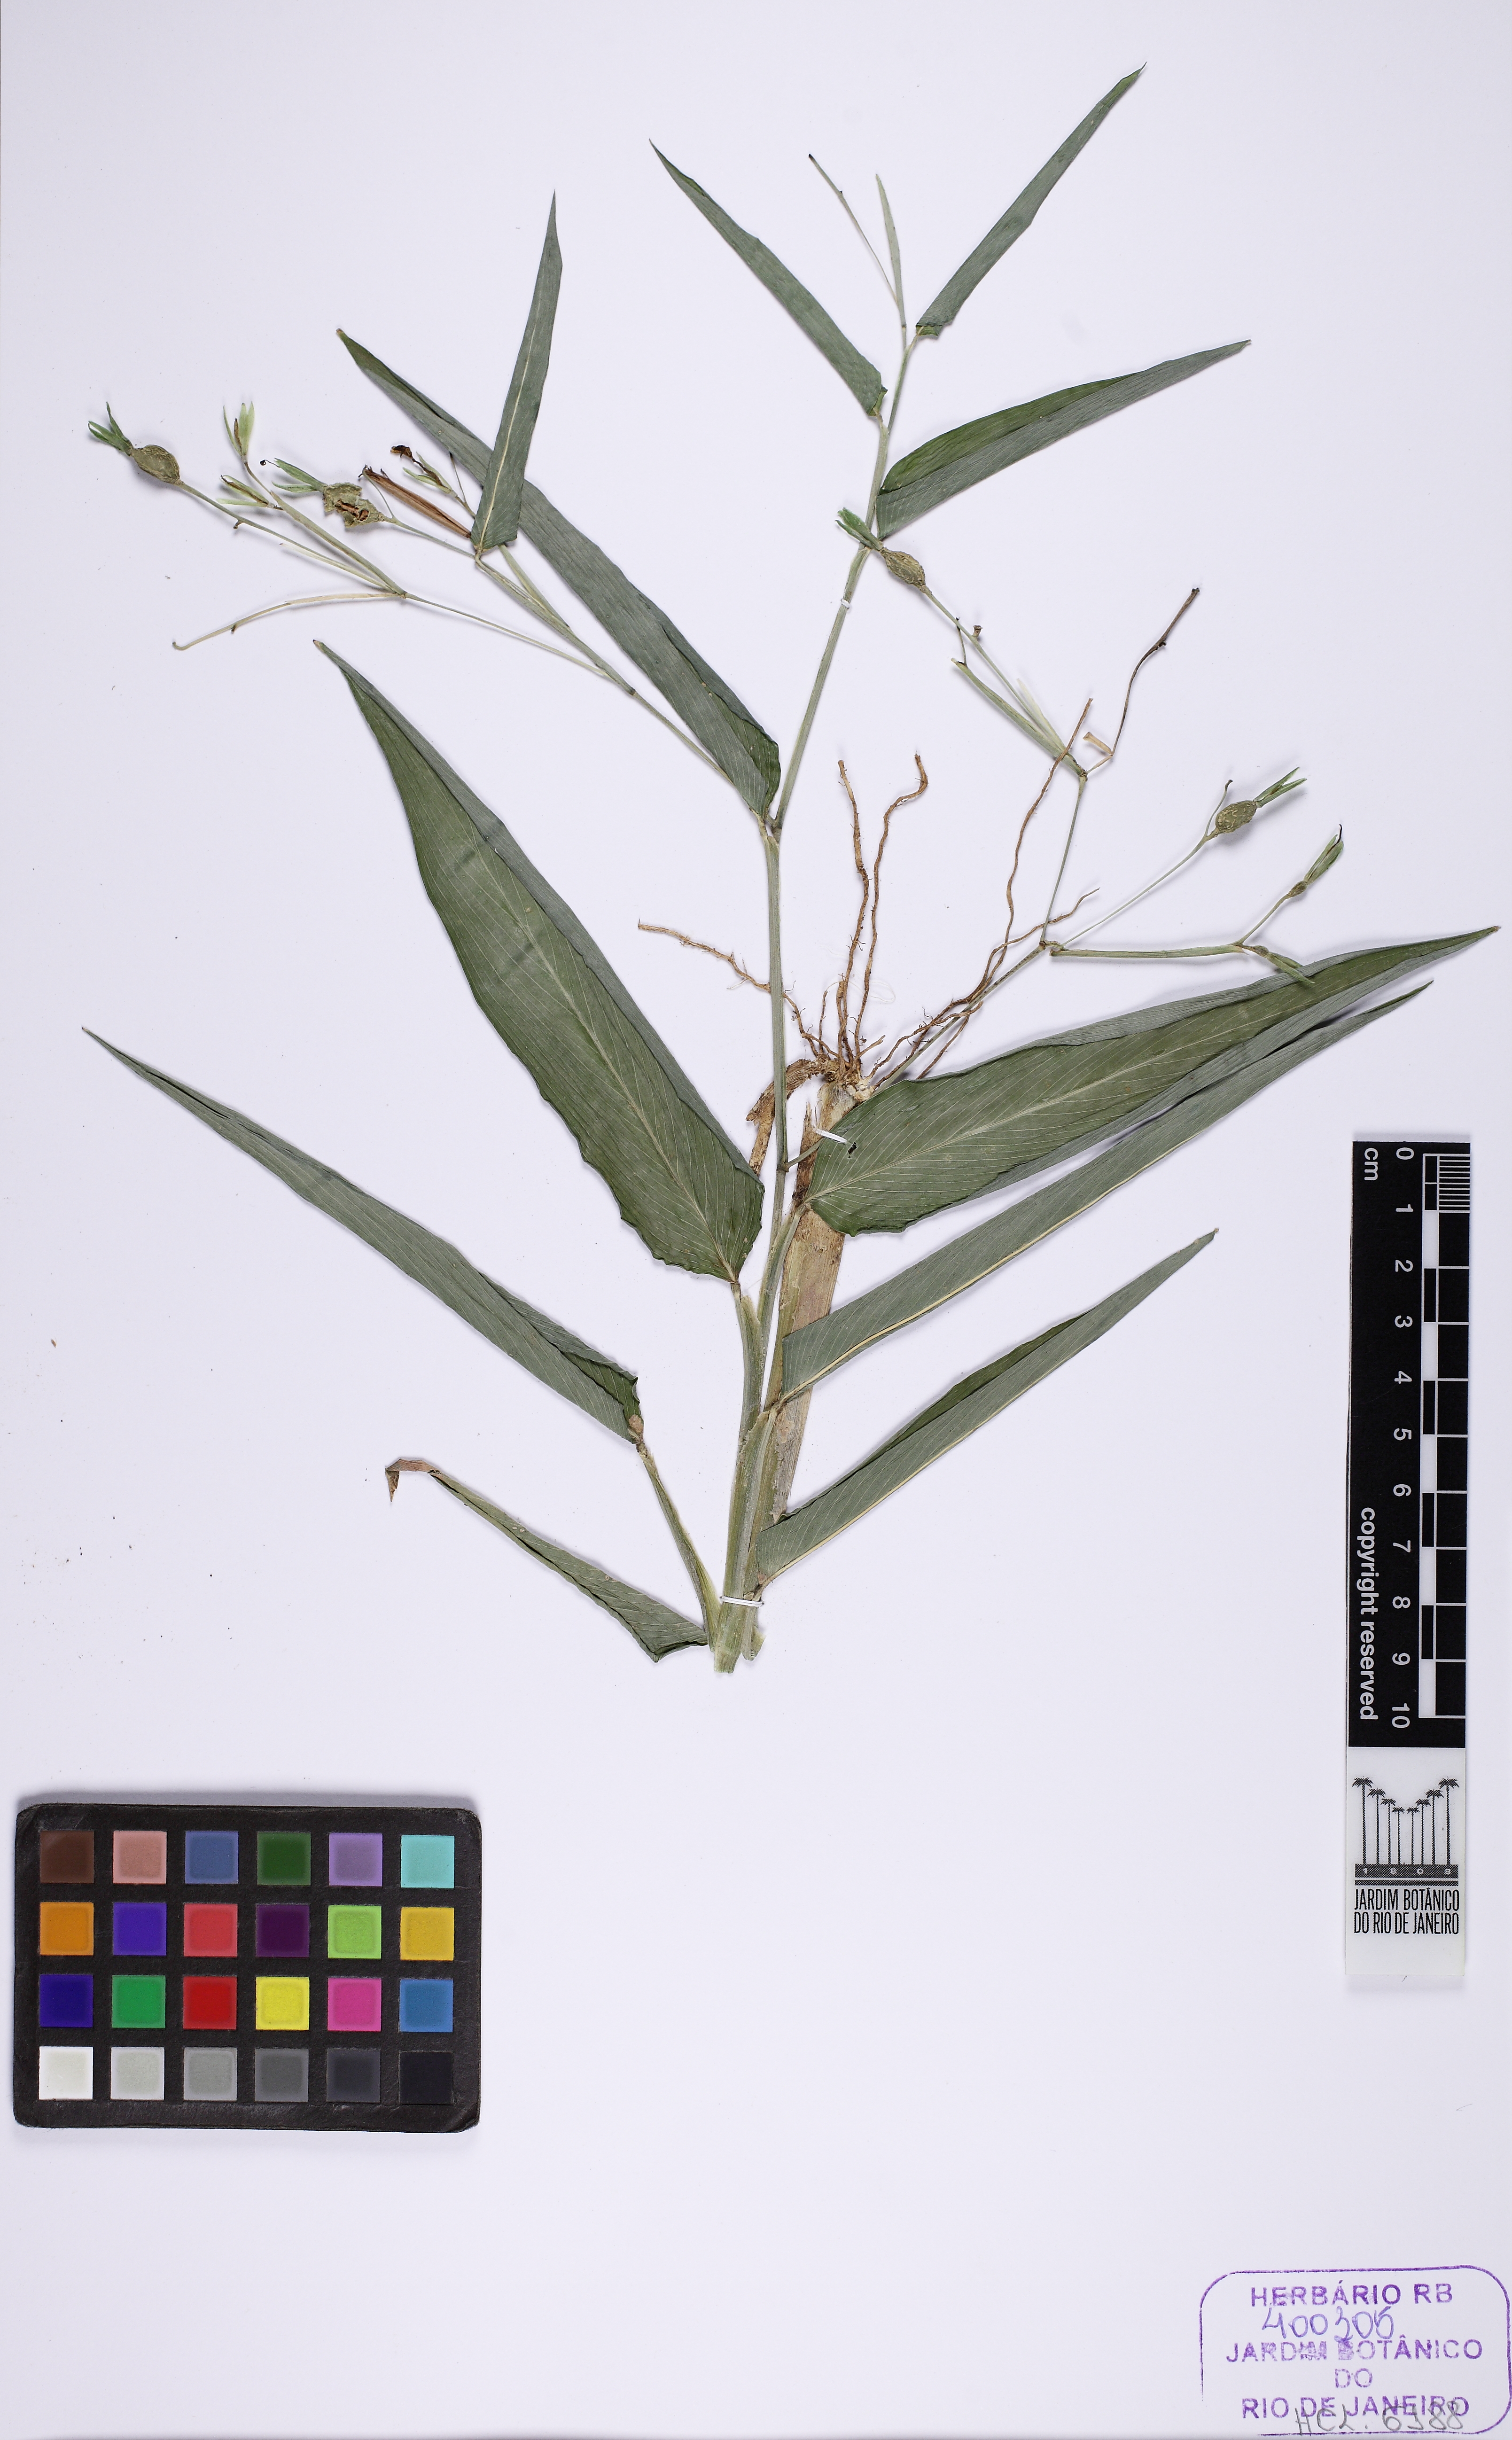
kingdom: Plantae
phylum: Tracheophyta
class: Liliopsida
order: Zingiberales
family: Marantaceae
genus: Maranta
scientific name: Maranta divaricata
